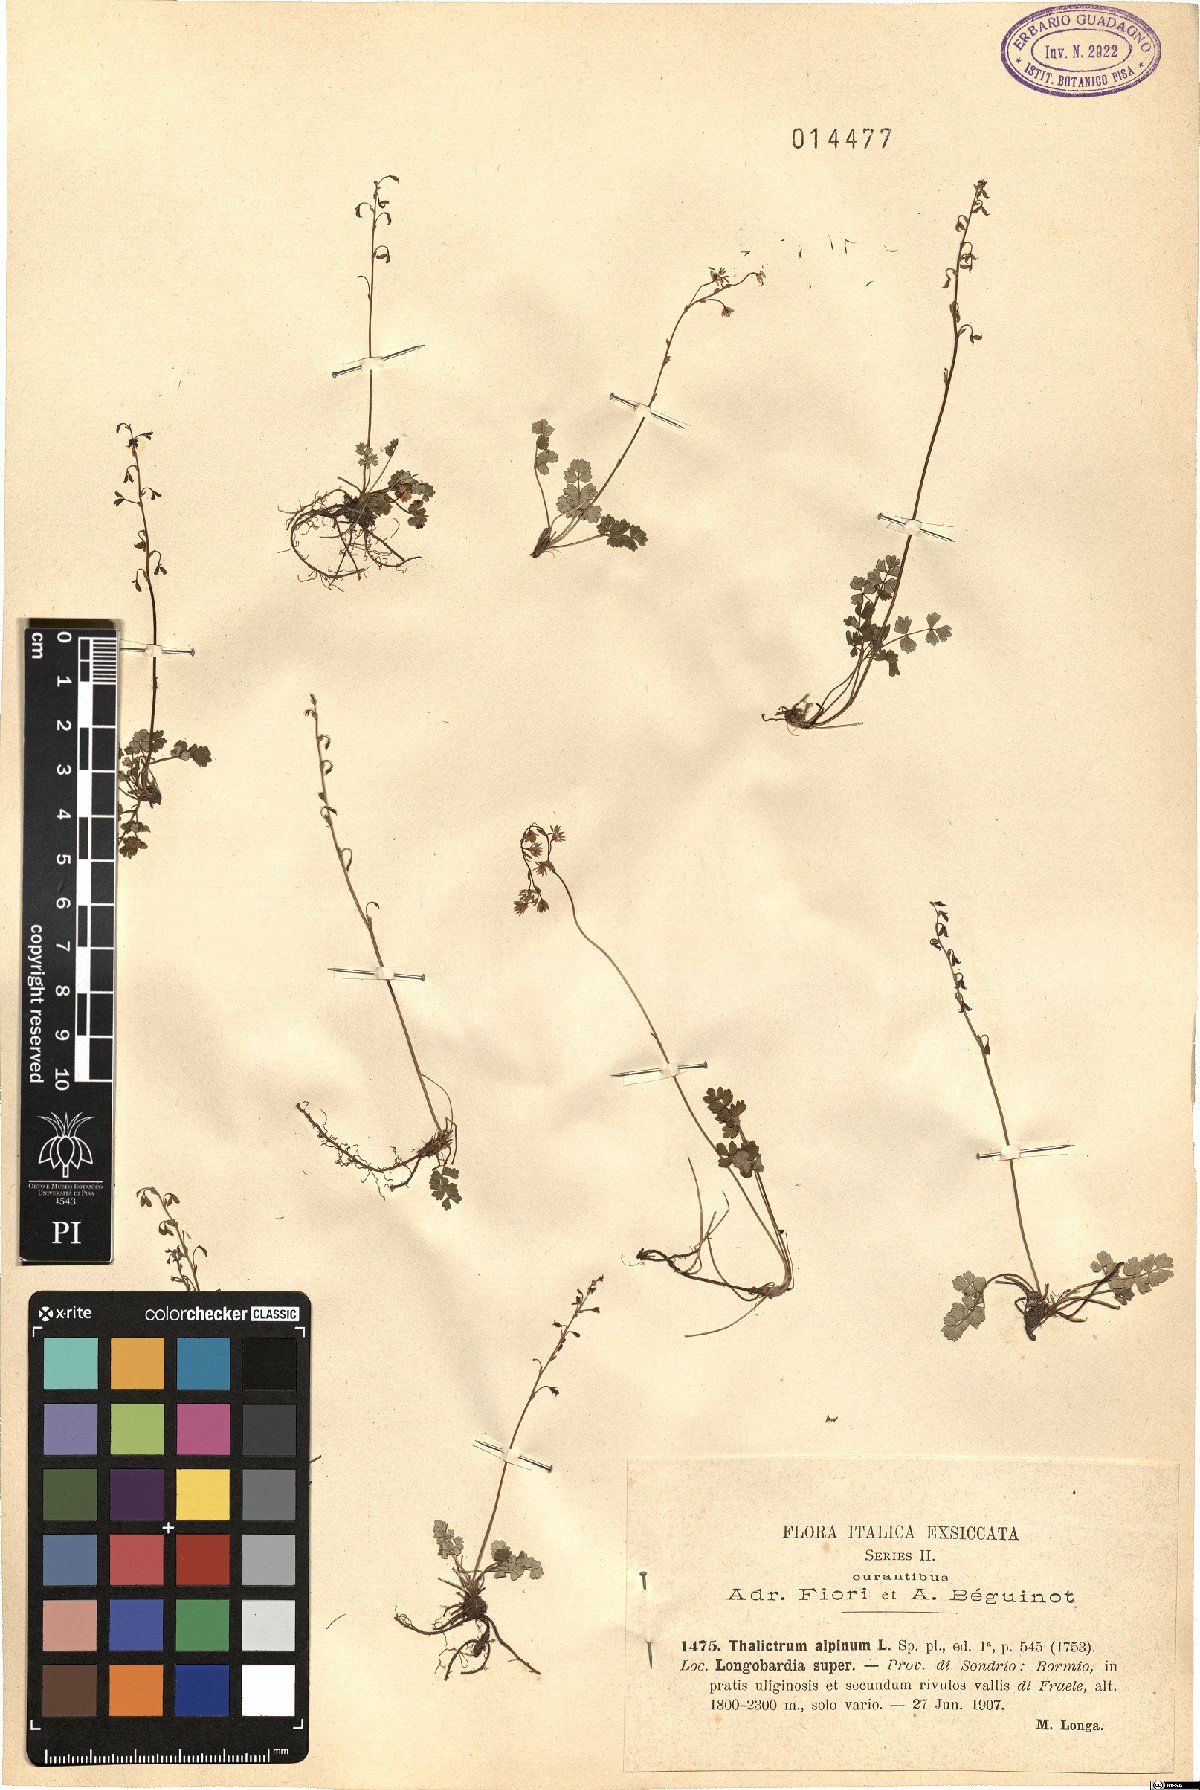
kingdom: Plantae
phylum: Tracheophyta
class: Magnoliopsida
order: Ranunculales
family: Ranunculaceae
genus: Thalictrum
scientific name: Thalictrum alpinum
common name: Alpine meadow-rue
